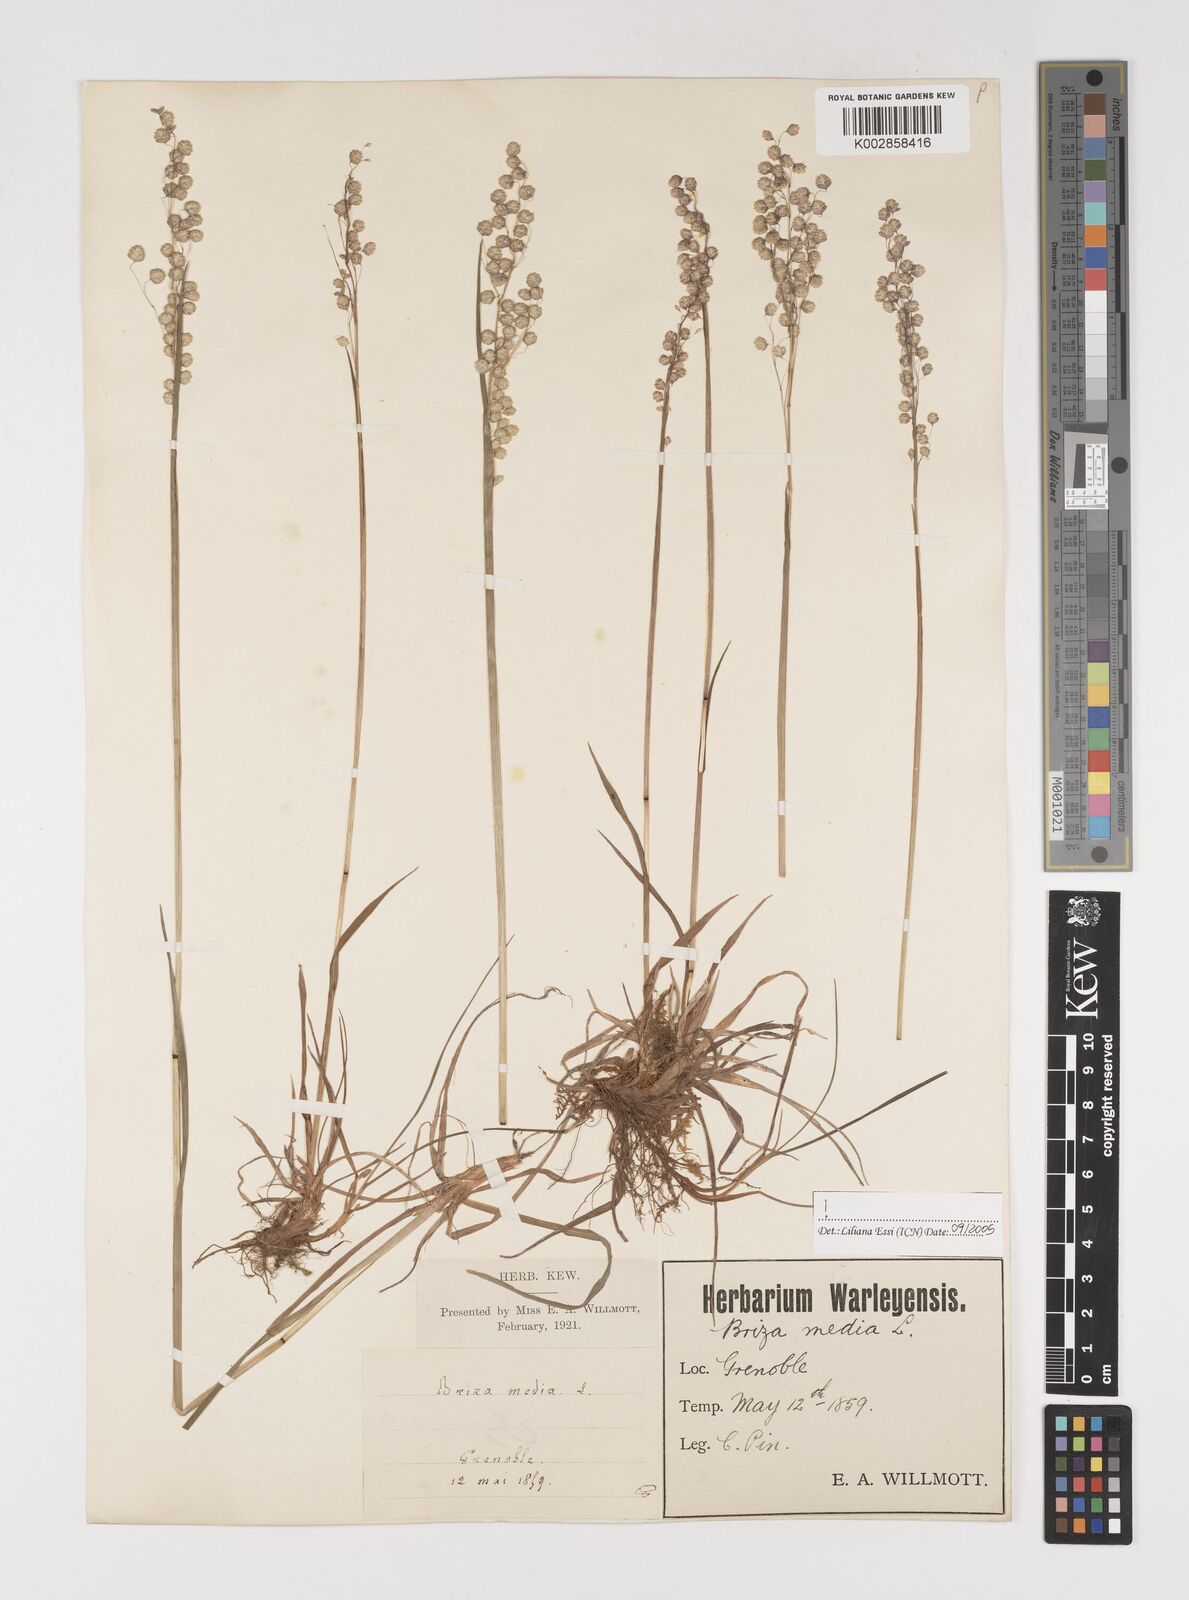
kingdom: Plantae
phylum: Tracheophyta
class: Liliopsida
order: Poales
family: Poaceae
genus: Briza
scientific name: Briza media
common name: Quaking grass
